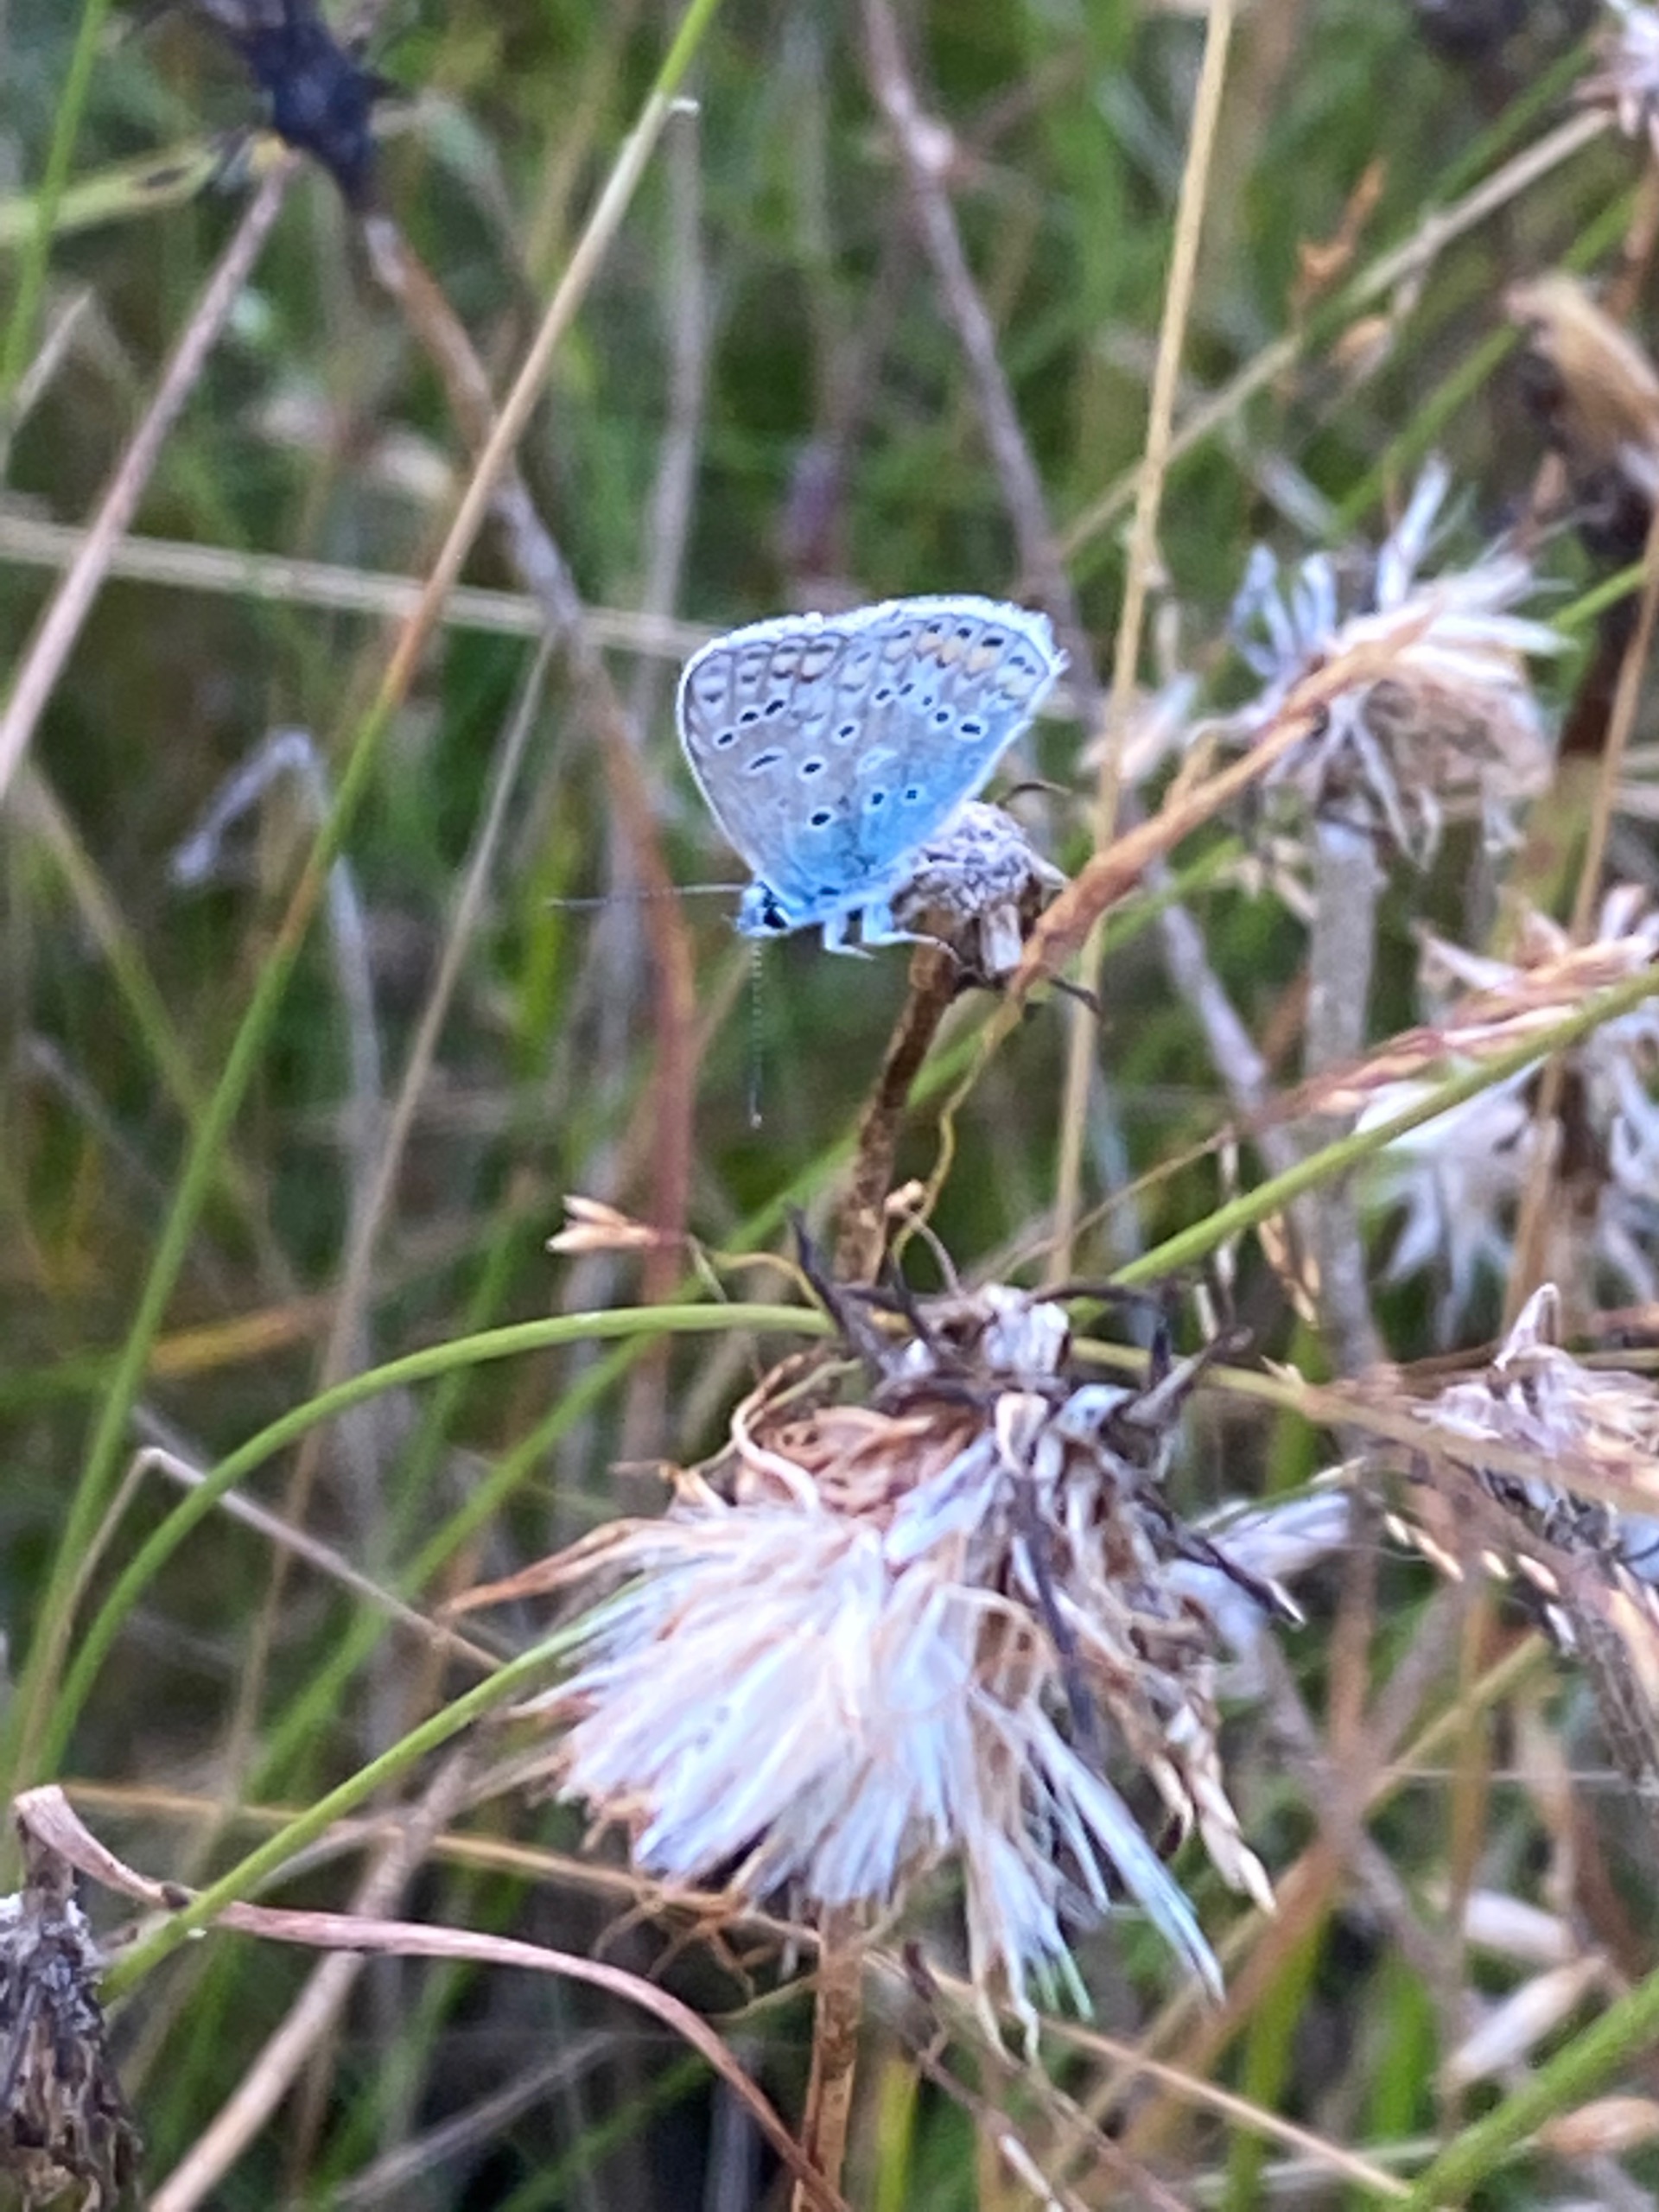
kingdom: Animalia
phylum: Arthropoda
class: Insecta
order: Lepidoptera
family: Lycaenidae
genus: Polyommatus
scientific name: Polyommatus icarus
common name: Almindelig blåfugl
